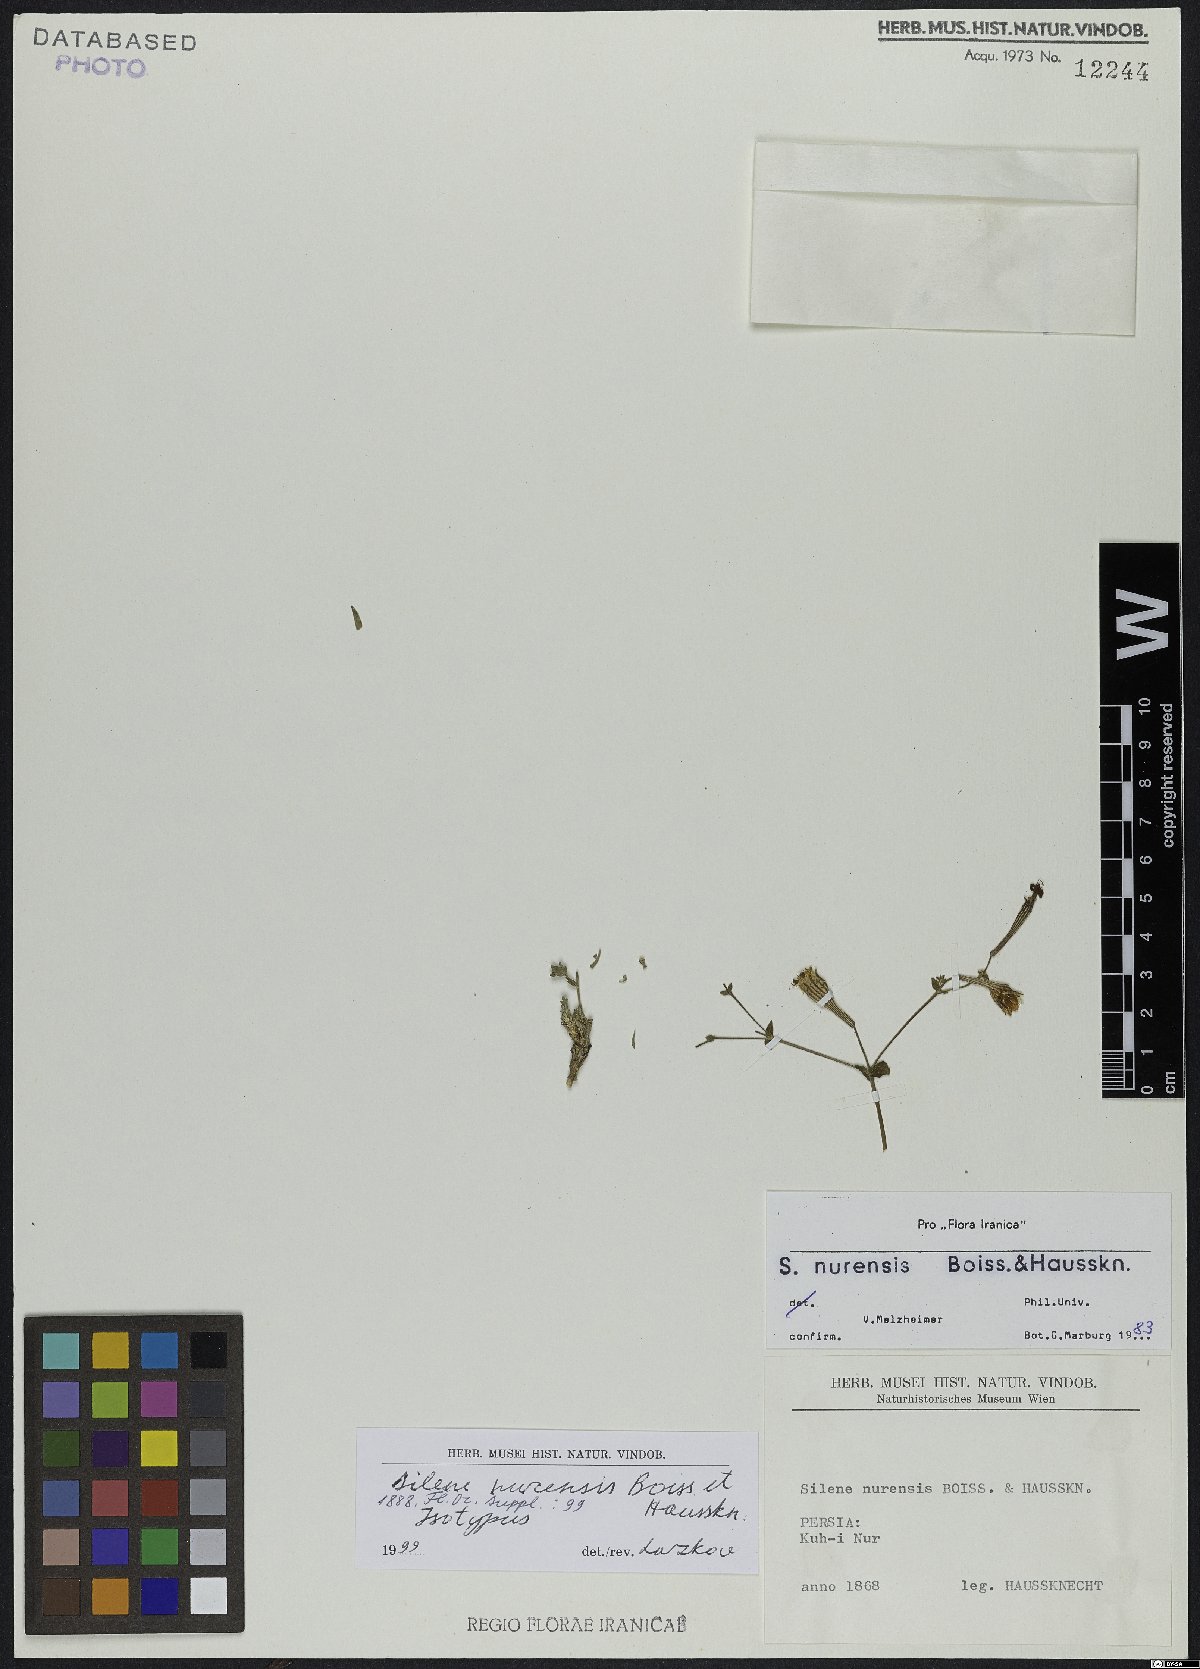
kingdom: Plantae
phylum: Tracheophyta
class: Magnoliopsida
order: Caryophyllales
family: Caryophyllaceae
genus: Silene
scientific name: Silene nurensis
